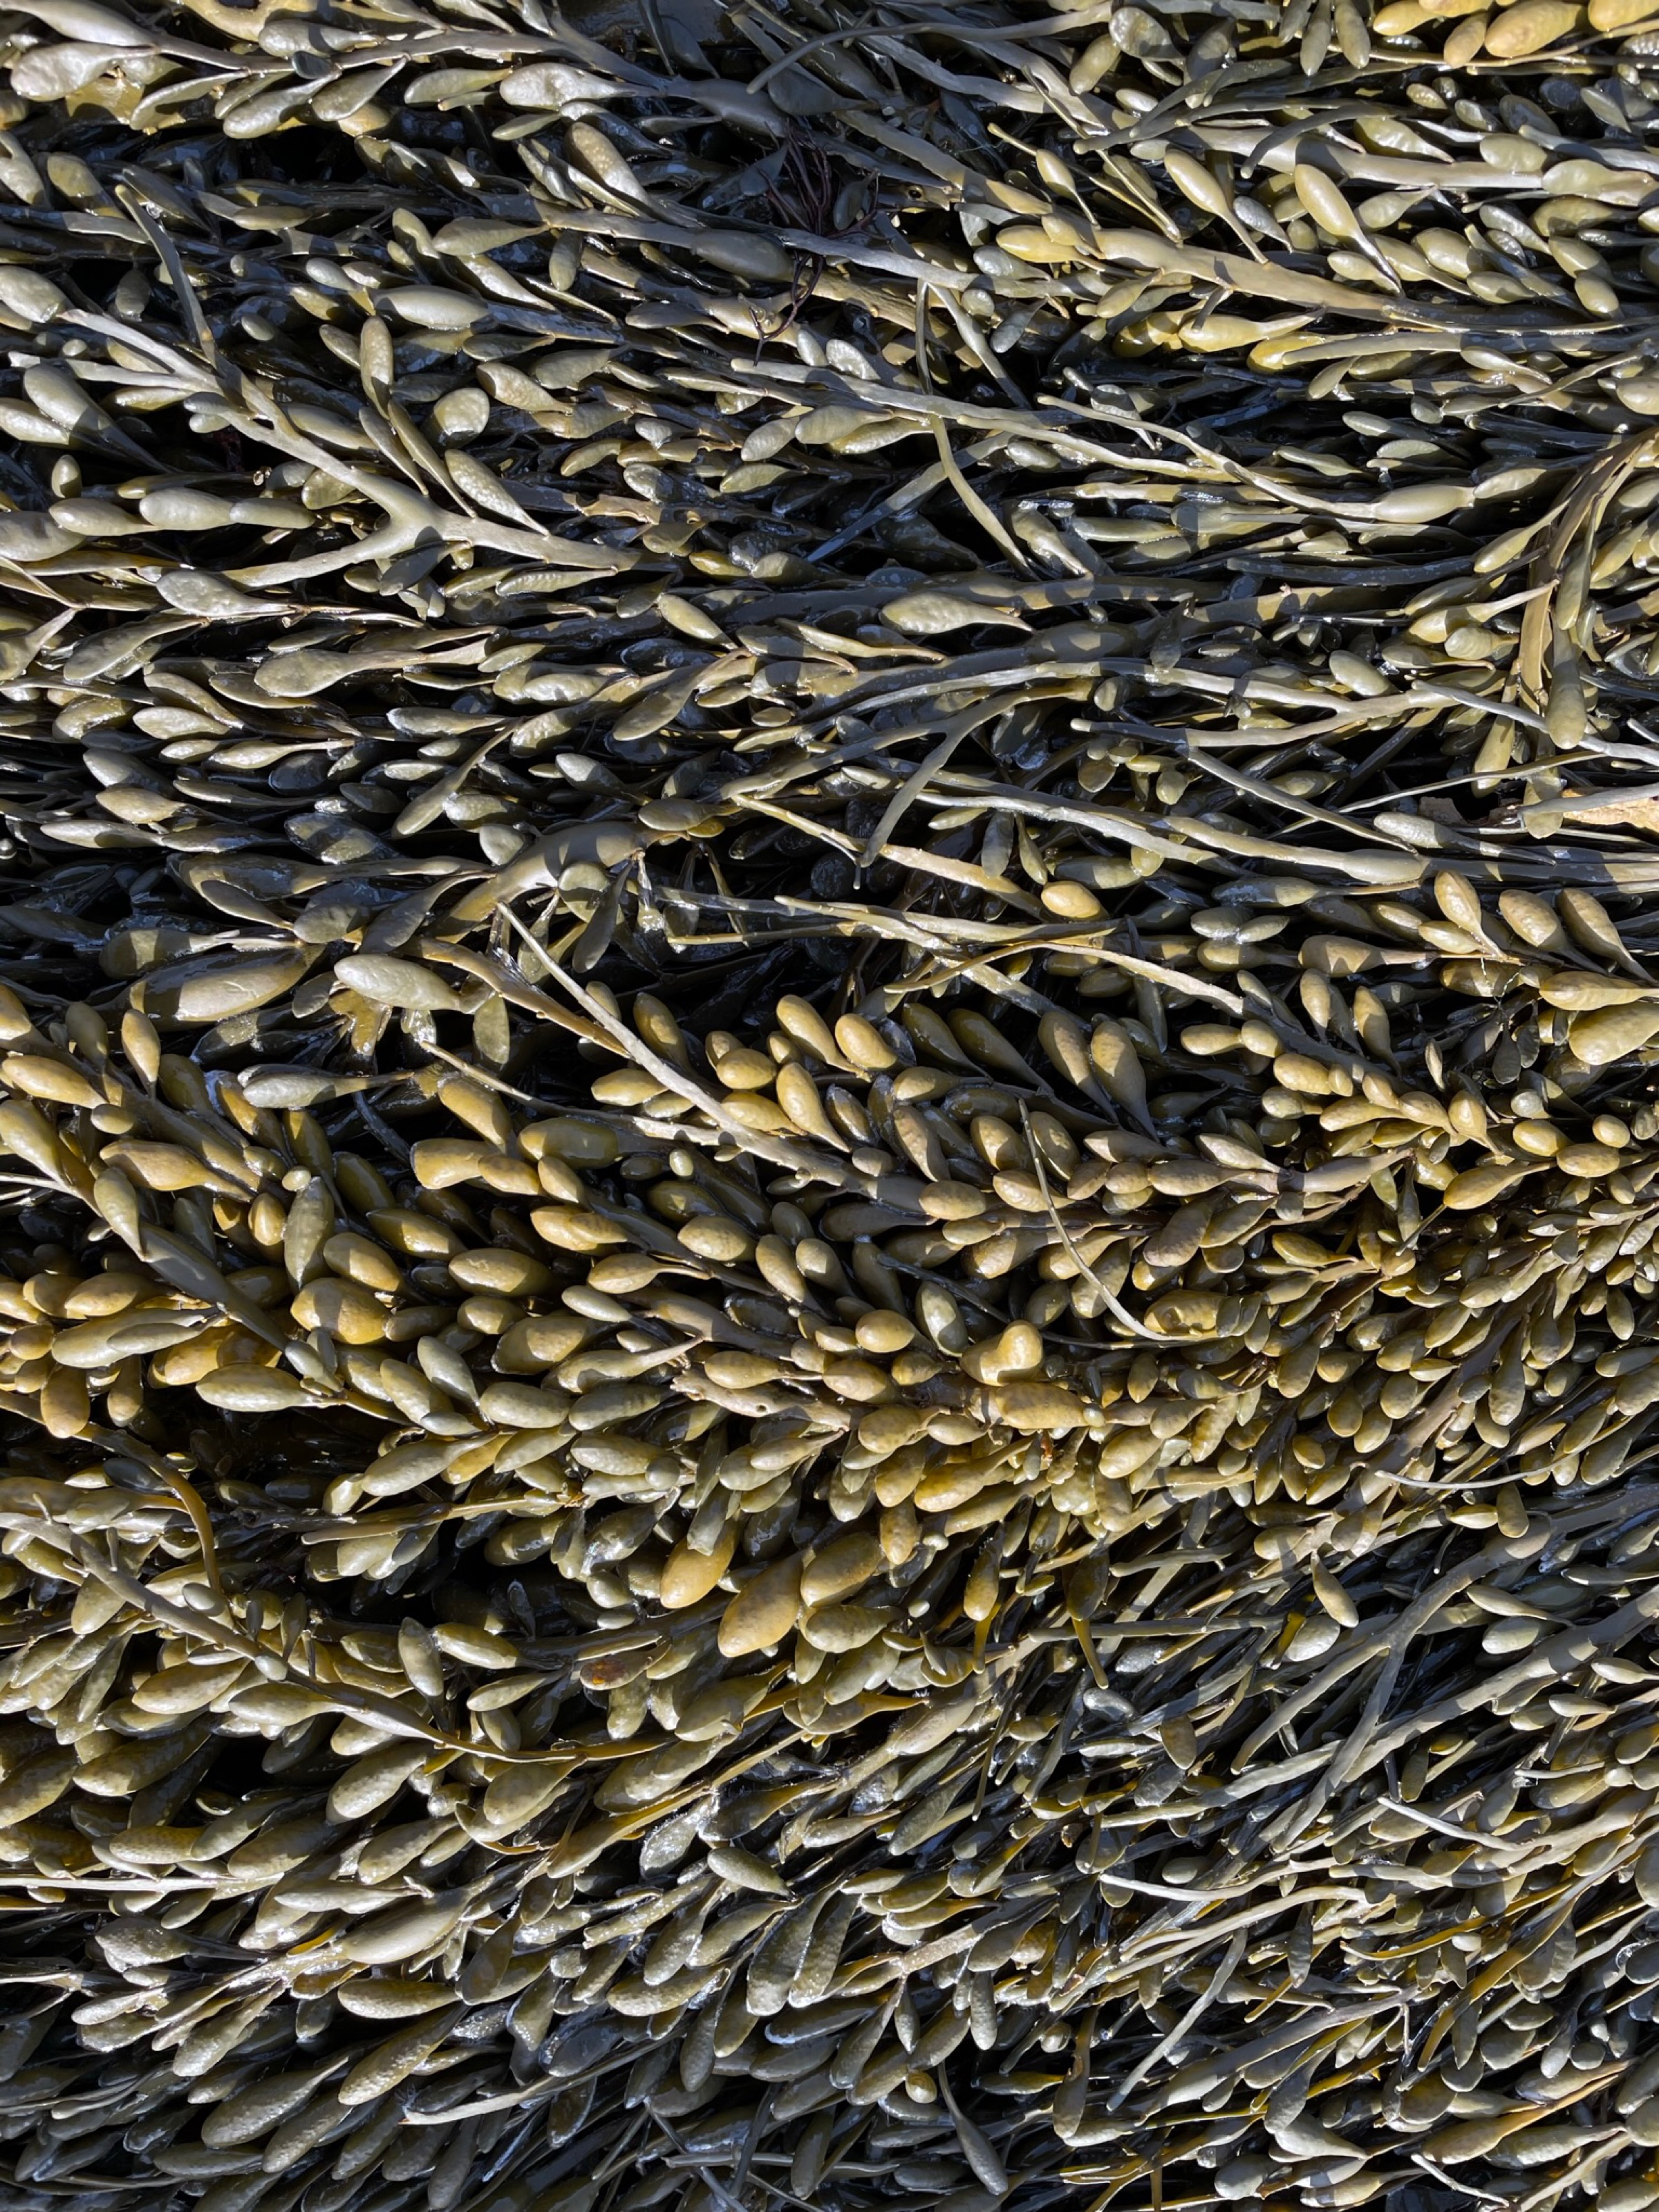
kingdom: Chromista
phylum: Ochrophyta
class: Phaeophyceae
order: Fucales
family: Fucaceae
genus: Ascophyllum
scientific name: Ascophyllum nodosum
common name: Rockweed
